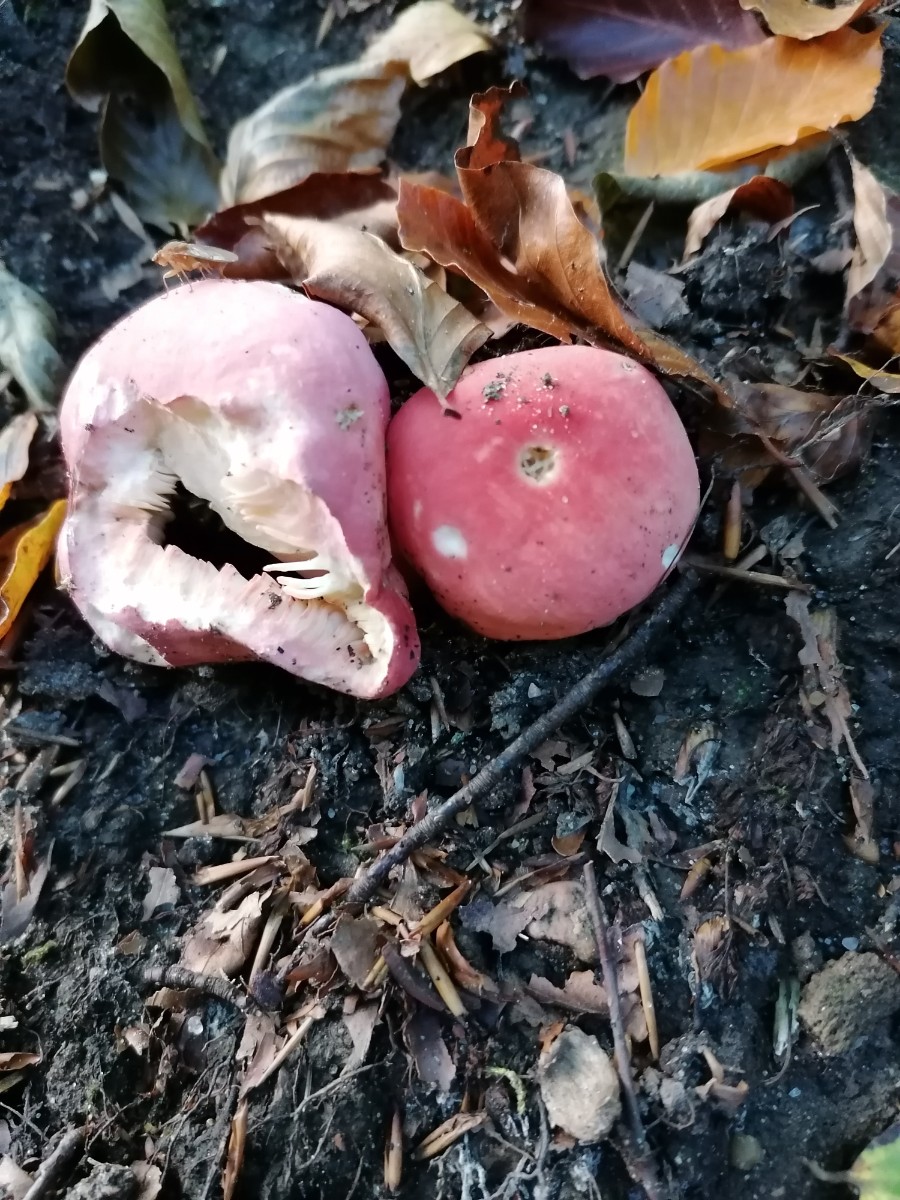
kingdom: Fungi
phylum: Basidiomycota
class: Agaricomycetes
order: Russulales
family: Russulaceae
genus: Russula
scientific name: Russula rosea
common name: fastkødet skørhat
